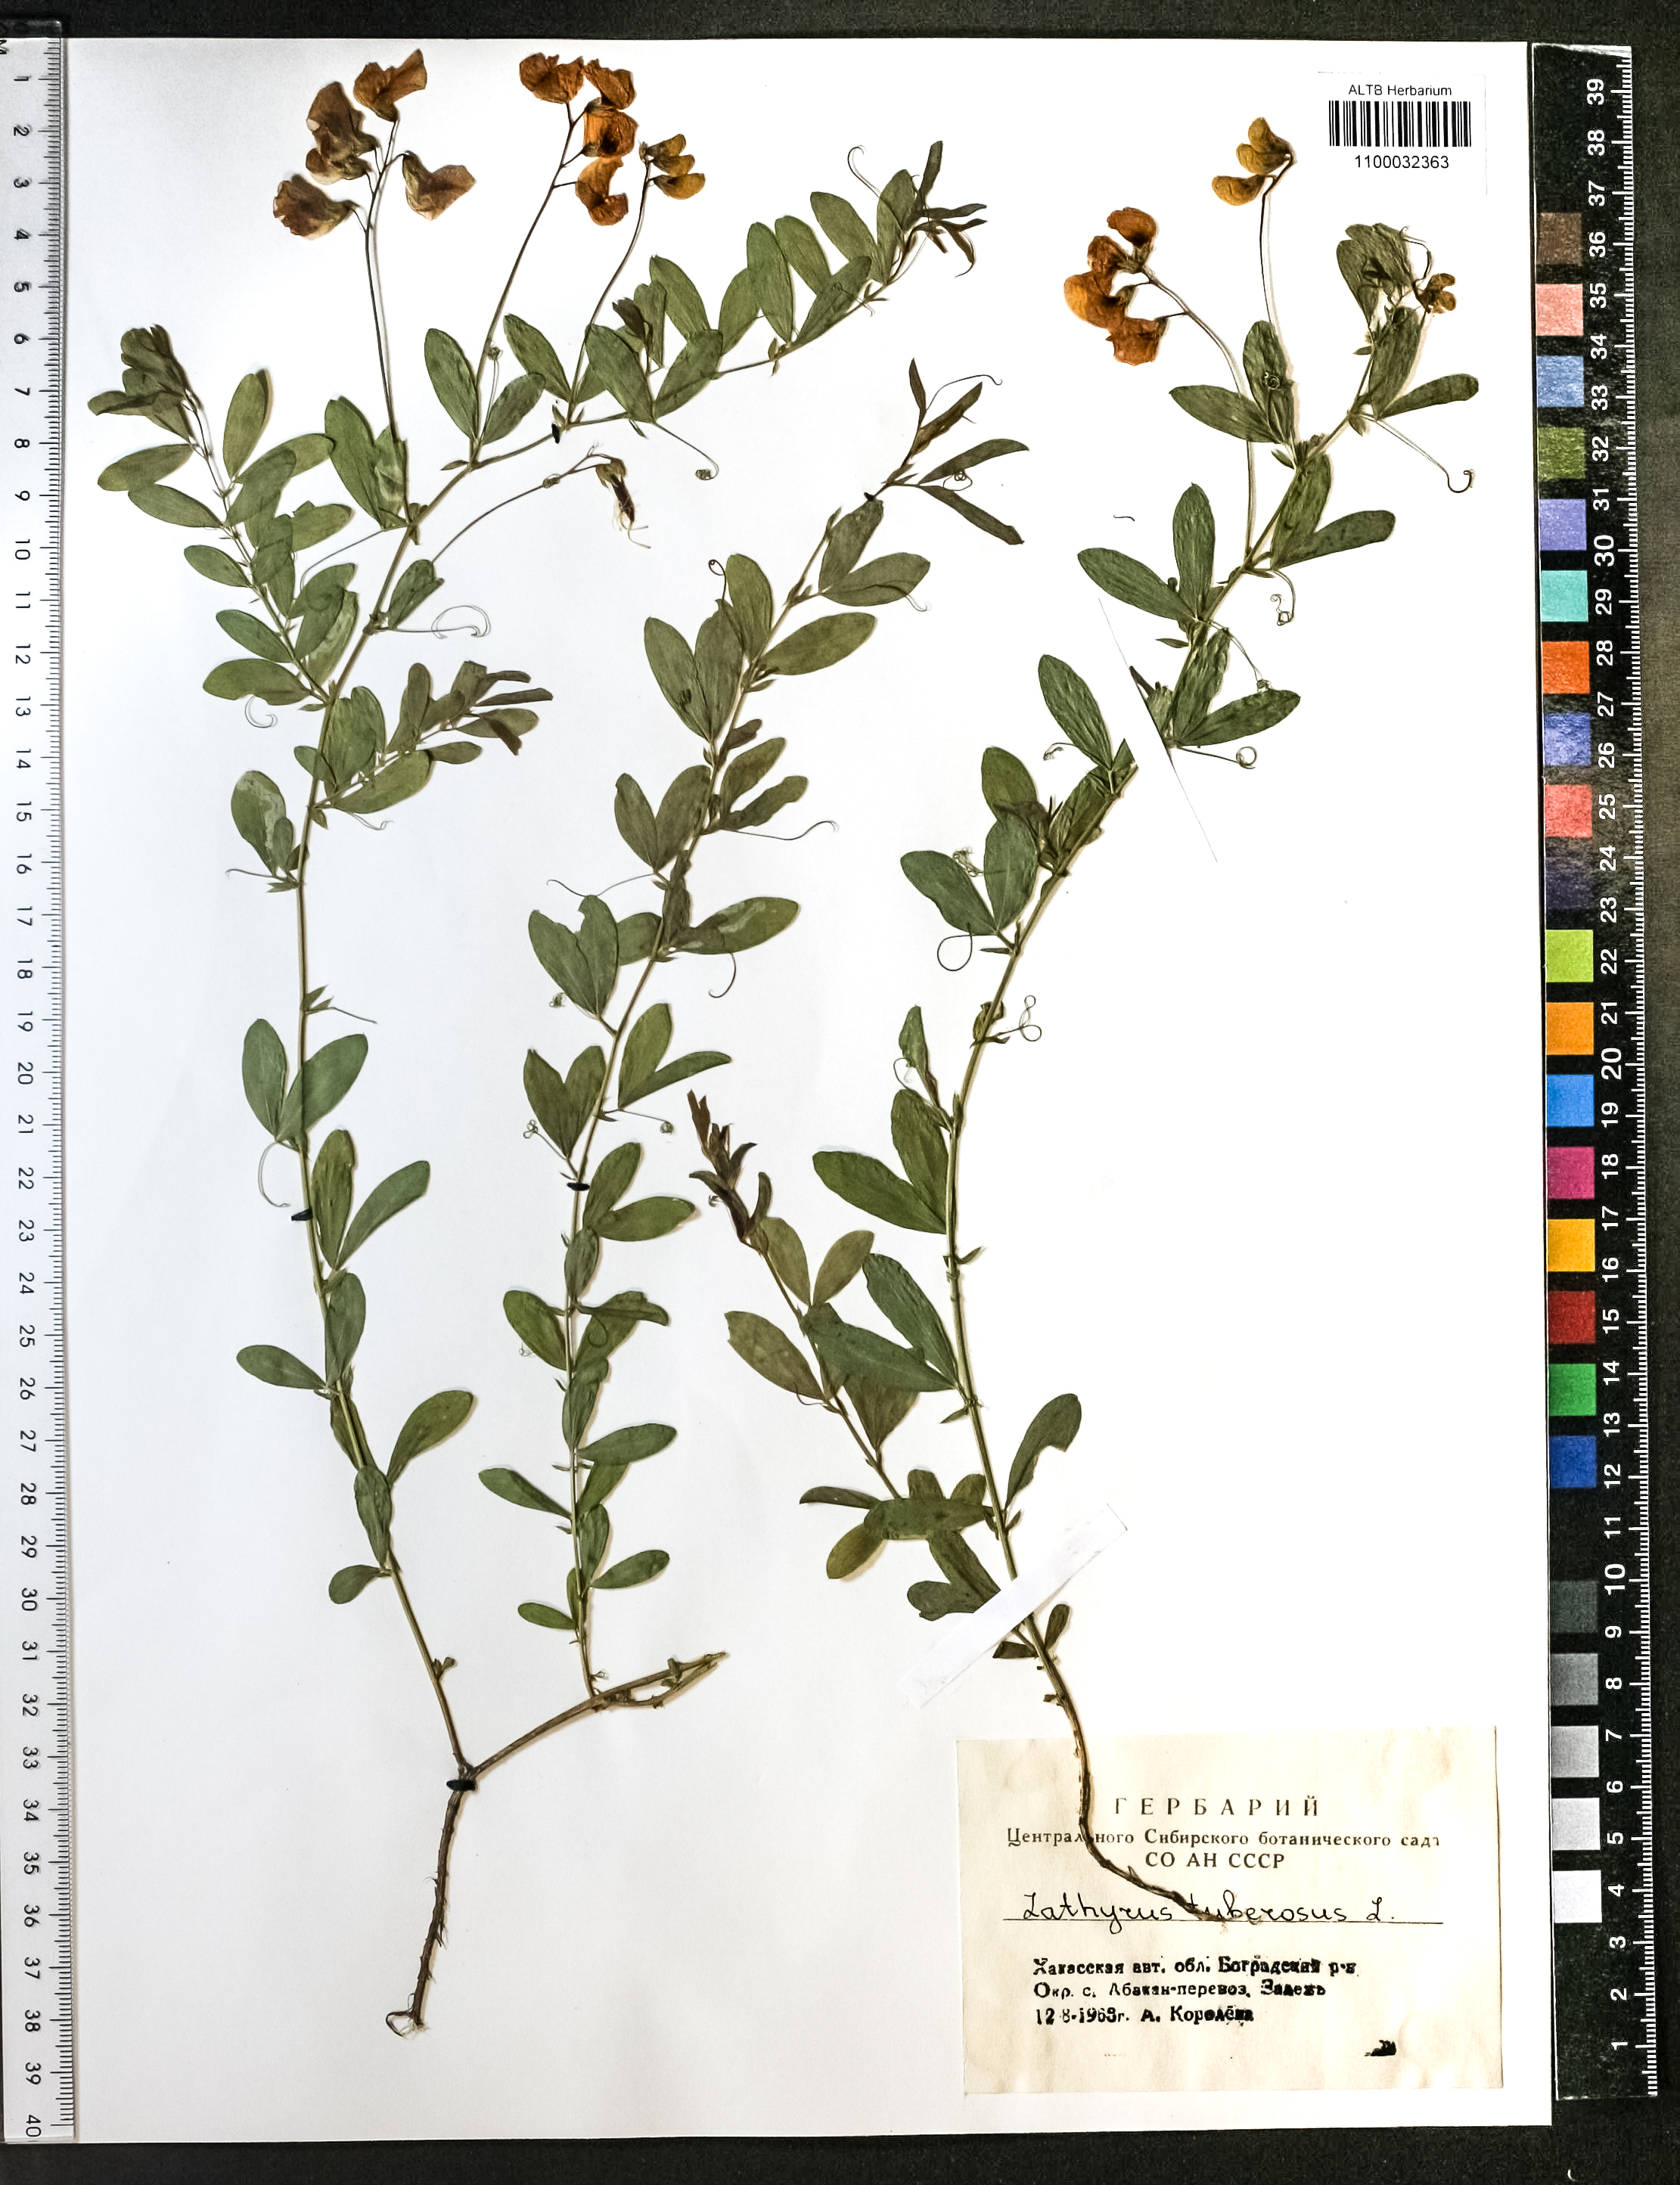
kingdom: Plantae
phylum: Tracheophyta
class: Magnoliopsida
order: Fabales
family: Fabaceae
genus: Lathyrus
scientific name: Lathyrus tuberosus
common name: Tuberous pea
